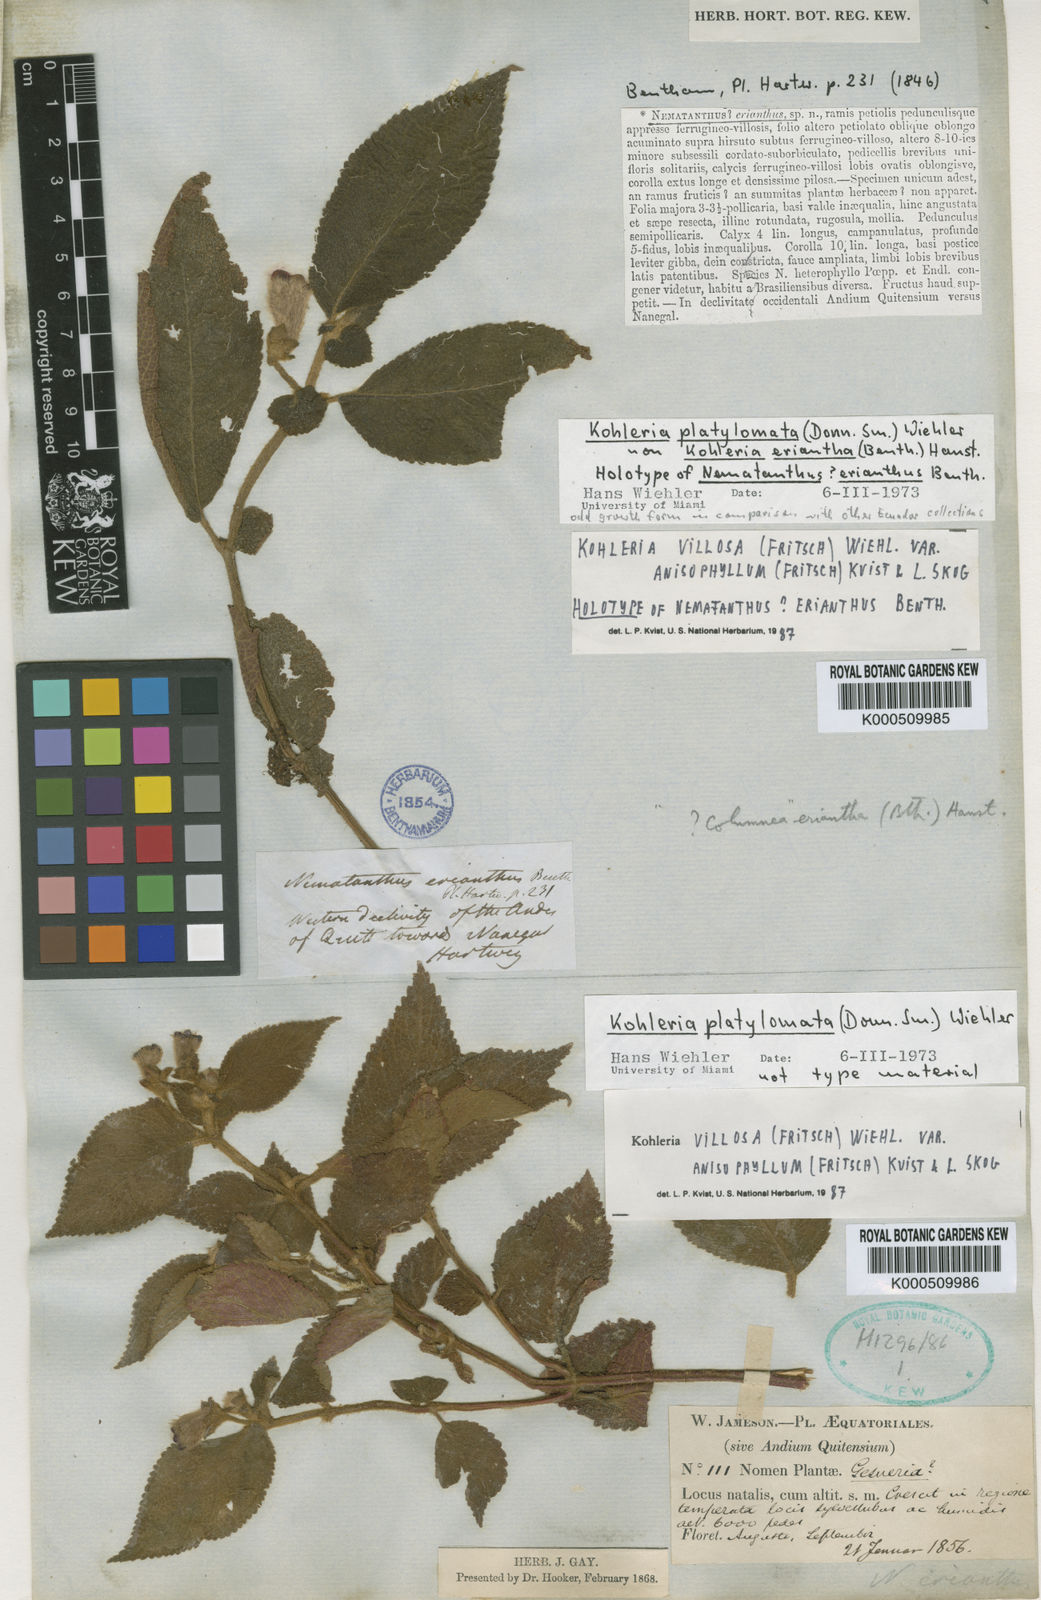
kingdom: Plantae
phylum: Tracheophyta
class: Magnoliopsida
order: Lamiales
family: Gesneriaceae
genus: Kohleria
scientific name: Kohleria villosa
